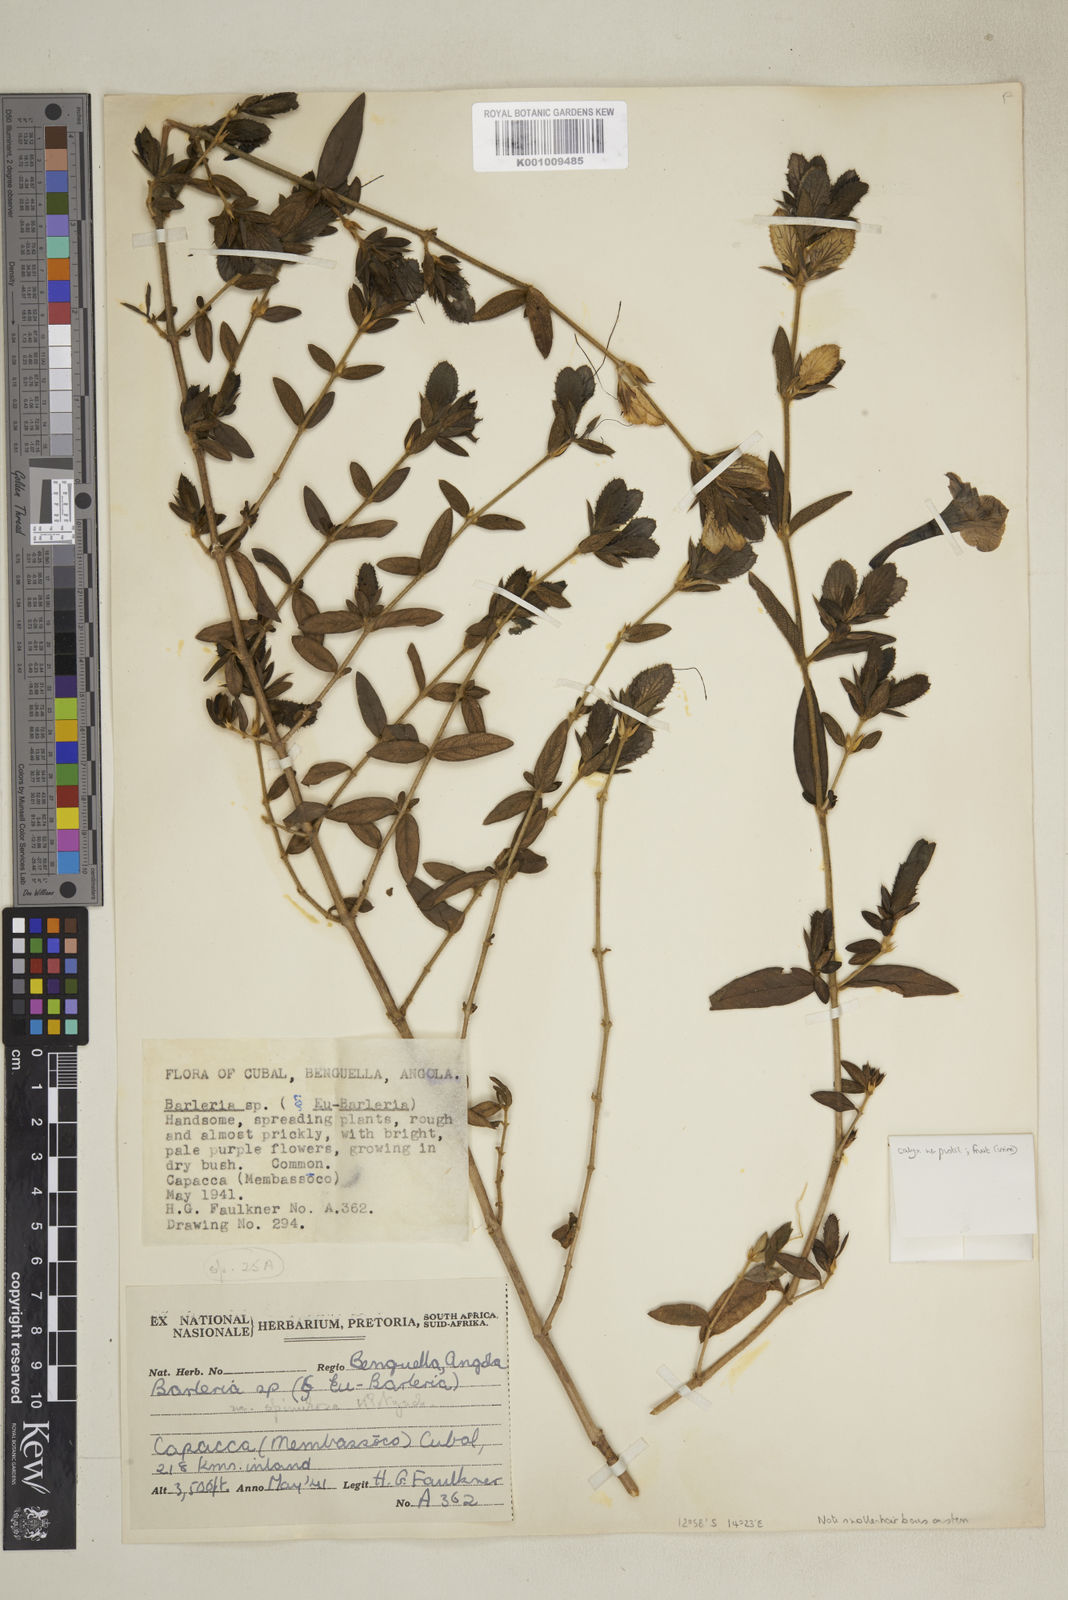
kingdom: Plantae
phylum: Tracheophyta
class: Magnoliopsida
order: Lamiales
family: Acanthaceae
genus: Barleria
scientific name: Barleria
